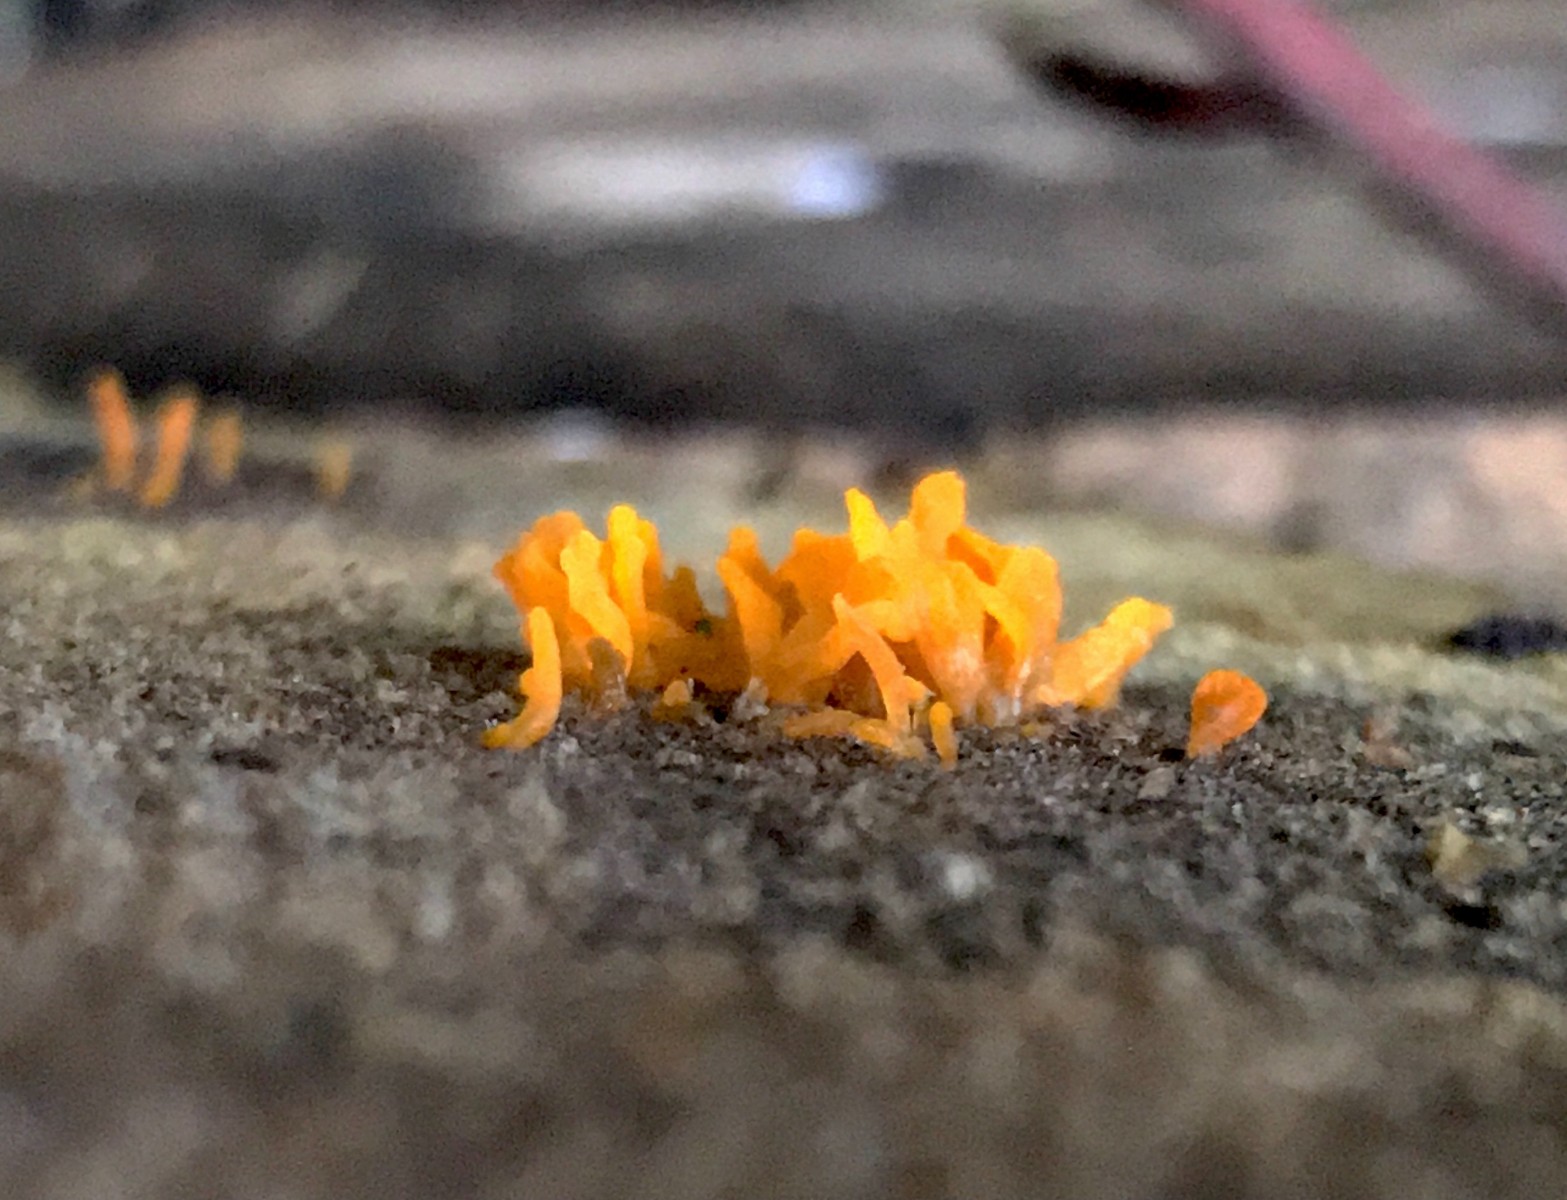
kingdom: Fungi
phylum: Basidiomycota
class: Dacrymycetes
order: Dacrymycetales
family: Dacrymycetaceae
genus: Calocera
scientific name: Calocera cornea
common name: liden guldgaffel
